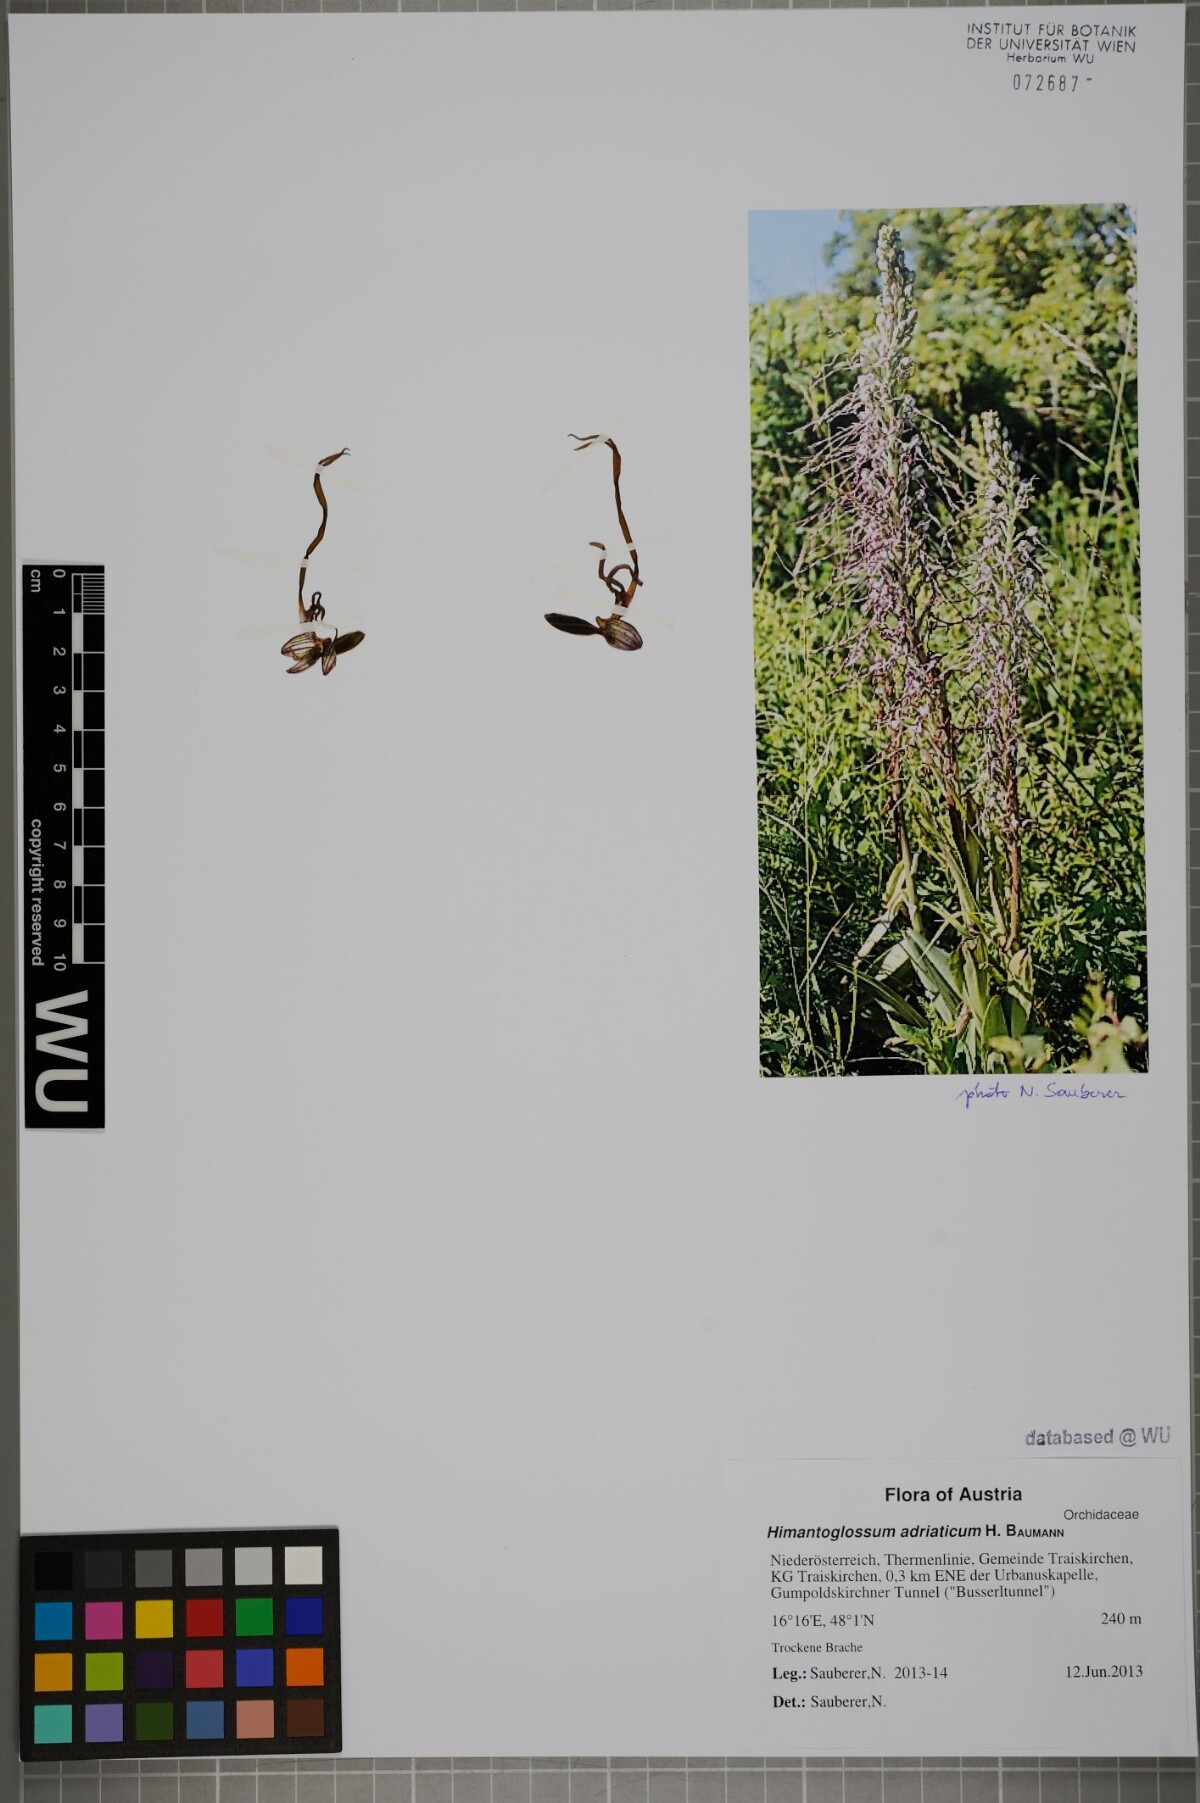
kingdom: Plantae
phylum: Tracheophyta
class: Liliopsida
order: Asparagales
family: Orchidaceae
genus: Himantoglossum
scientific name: Himantoglossum adriaticum
